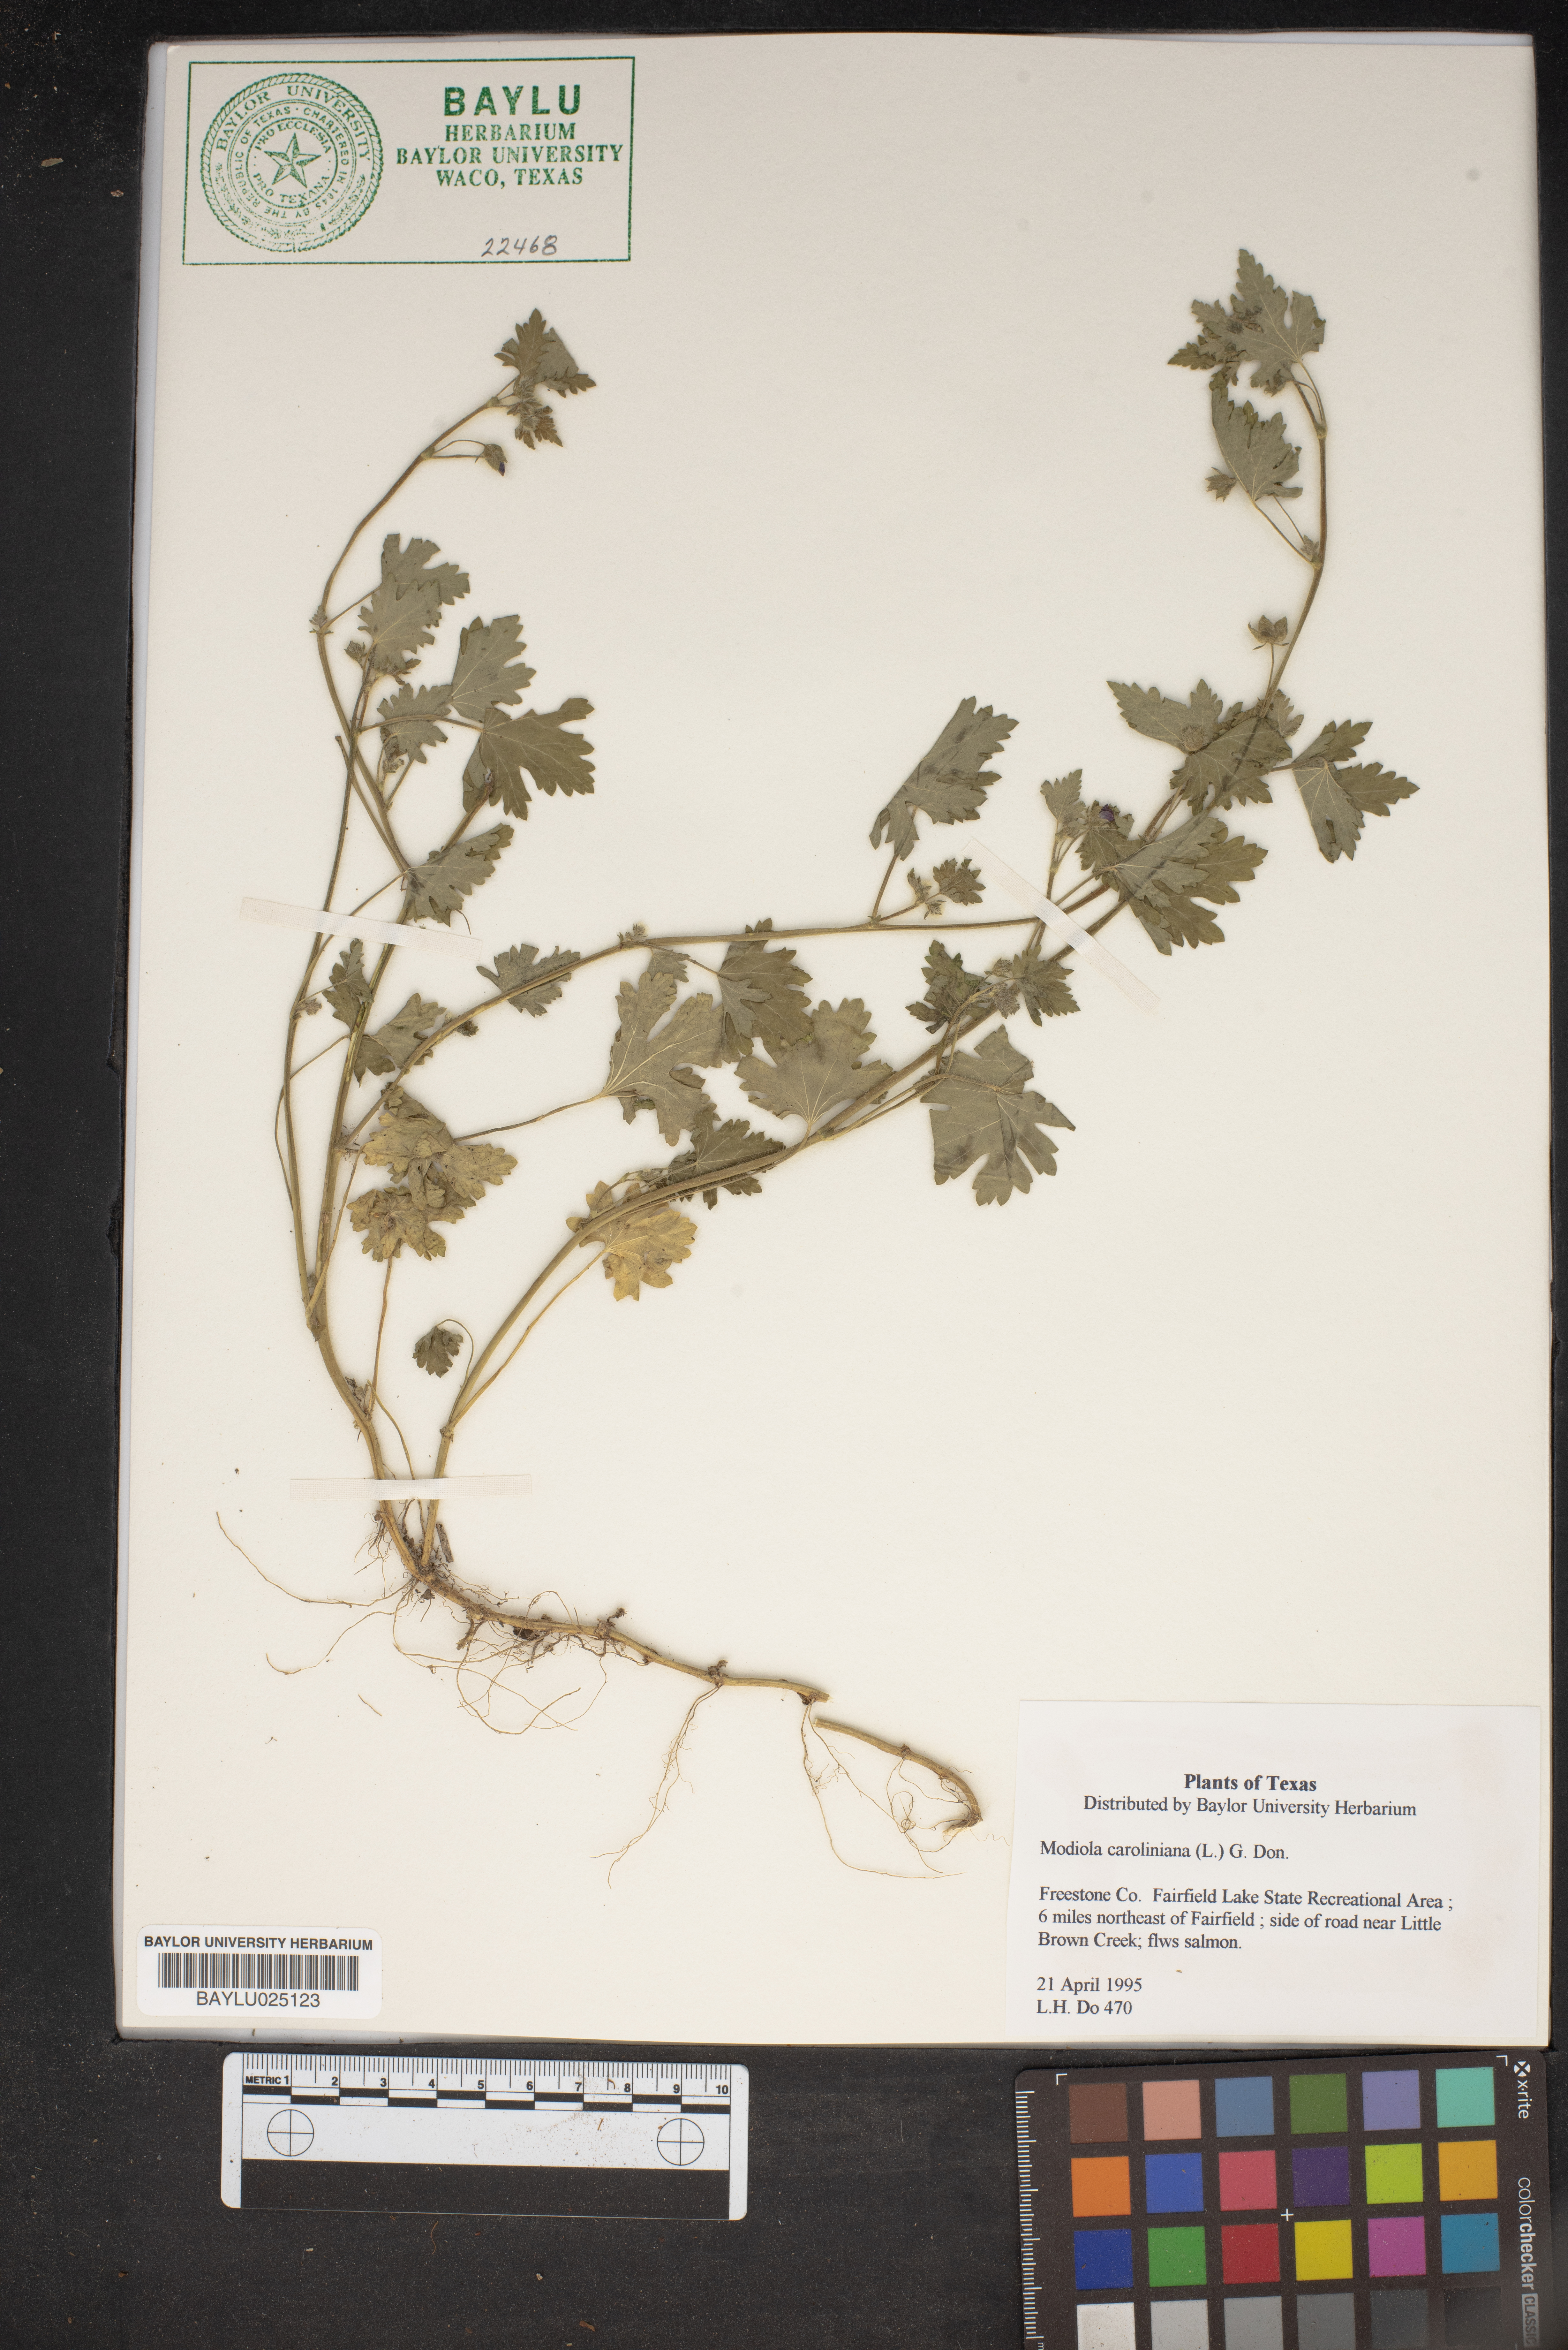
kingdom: Plantae
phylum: Tracheophyta
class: Magnoliopsida
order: Malvales
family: Malvaceae
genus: Modiola
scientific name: Modiola caroliniana
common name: Carolina bristlemallow
